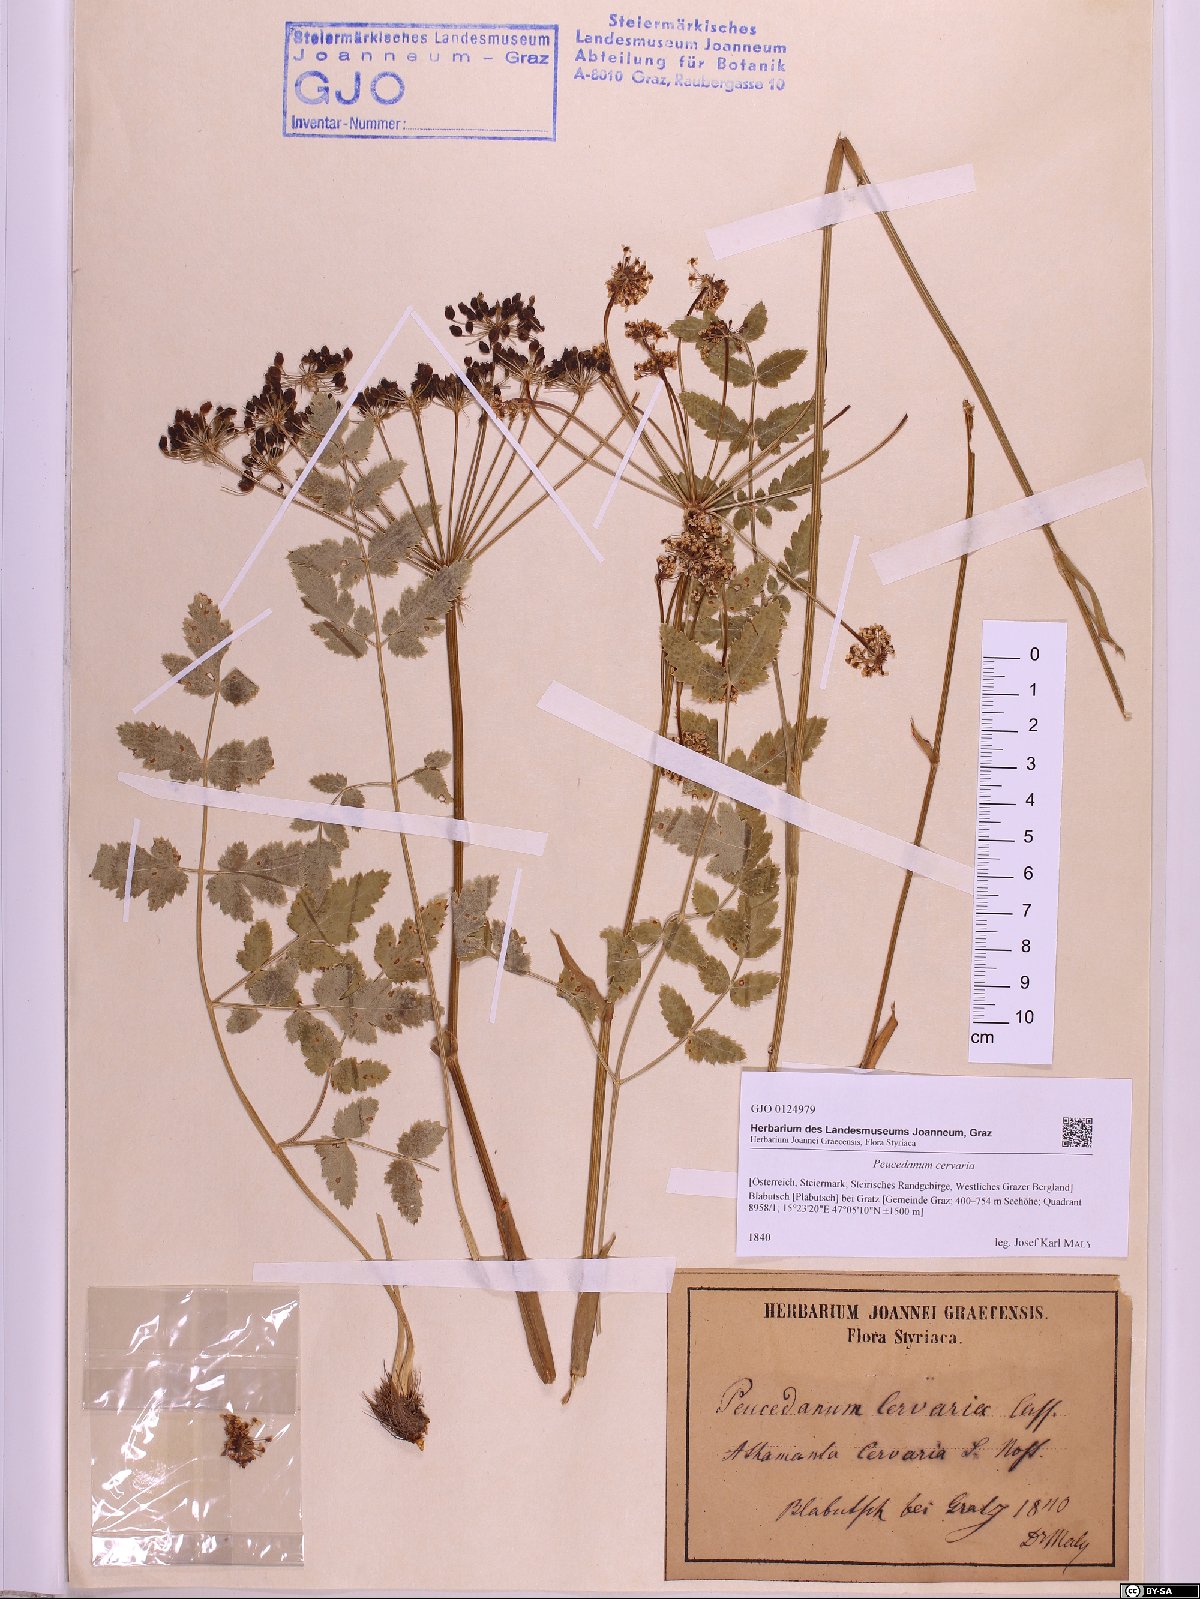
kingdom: Plantae
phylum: Tracheophyta
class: Magnoliopsida
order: Apiales
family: Apiaceae
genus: Cervaria
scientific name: Cervaria rivini
